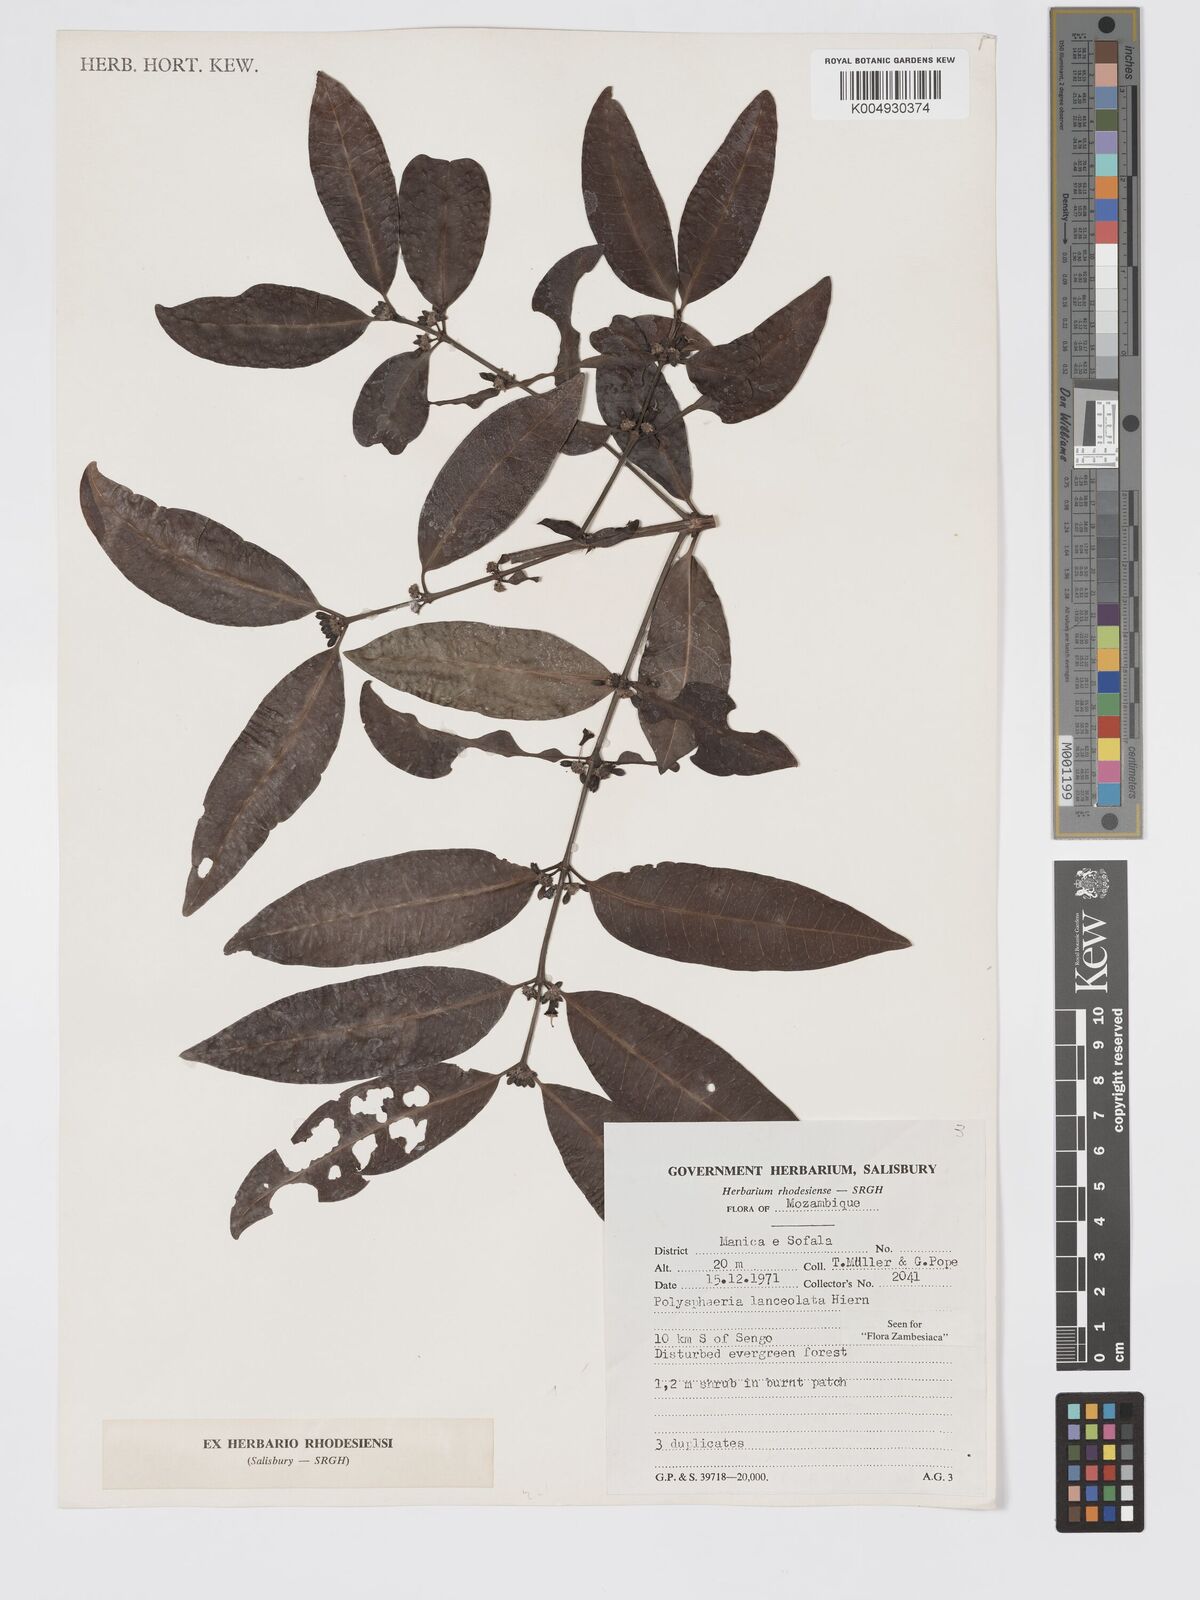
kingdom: Plantae
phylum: Tracheophyta
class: Magnoliopsida
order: Gentianales
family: Rubiaceae
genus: Polysphaeria
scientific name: Polysphaeria lanceolata
